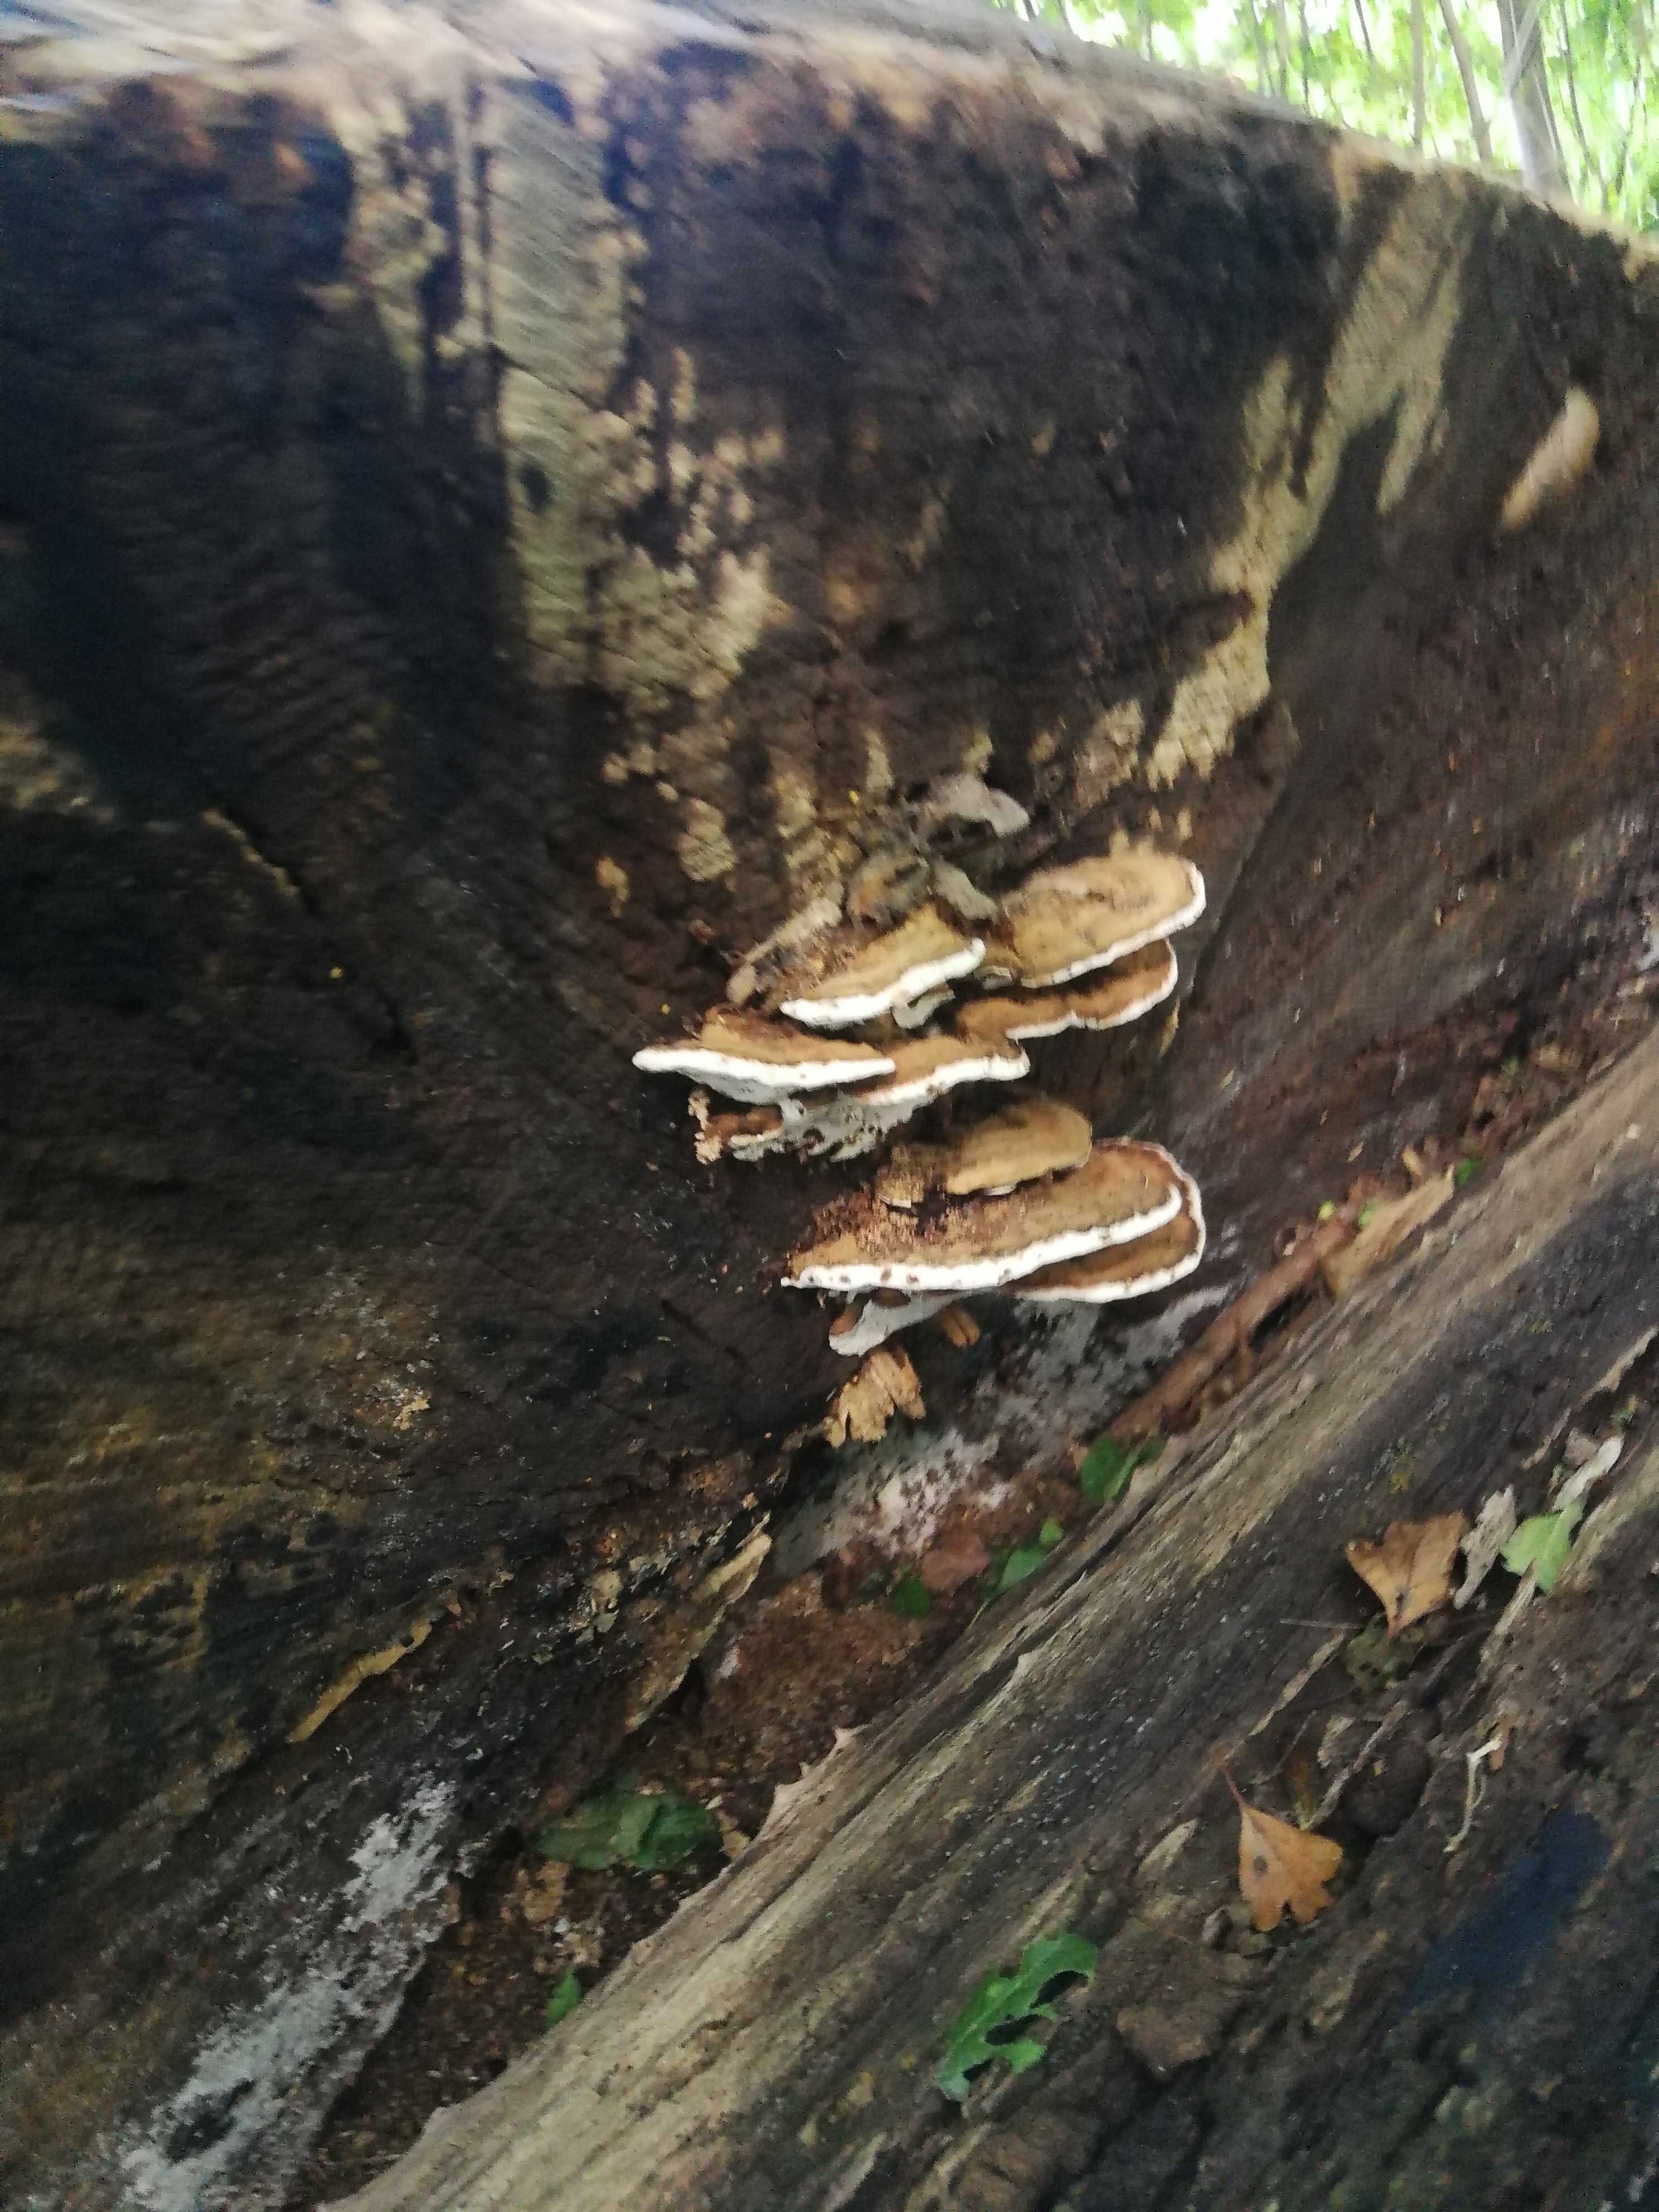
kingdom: Fungi
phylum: Basidiomycota
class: Agaricomycetes
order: Polyporales
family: Polyporaceae
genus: Ganoderma
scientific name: Ganoderma applanatum
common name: flad lakporesvamp
